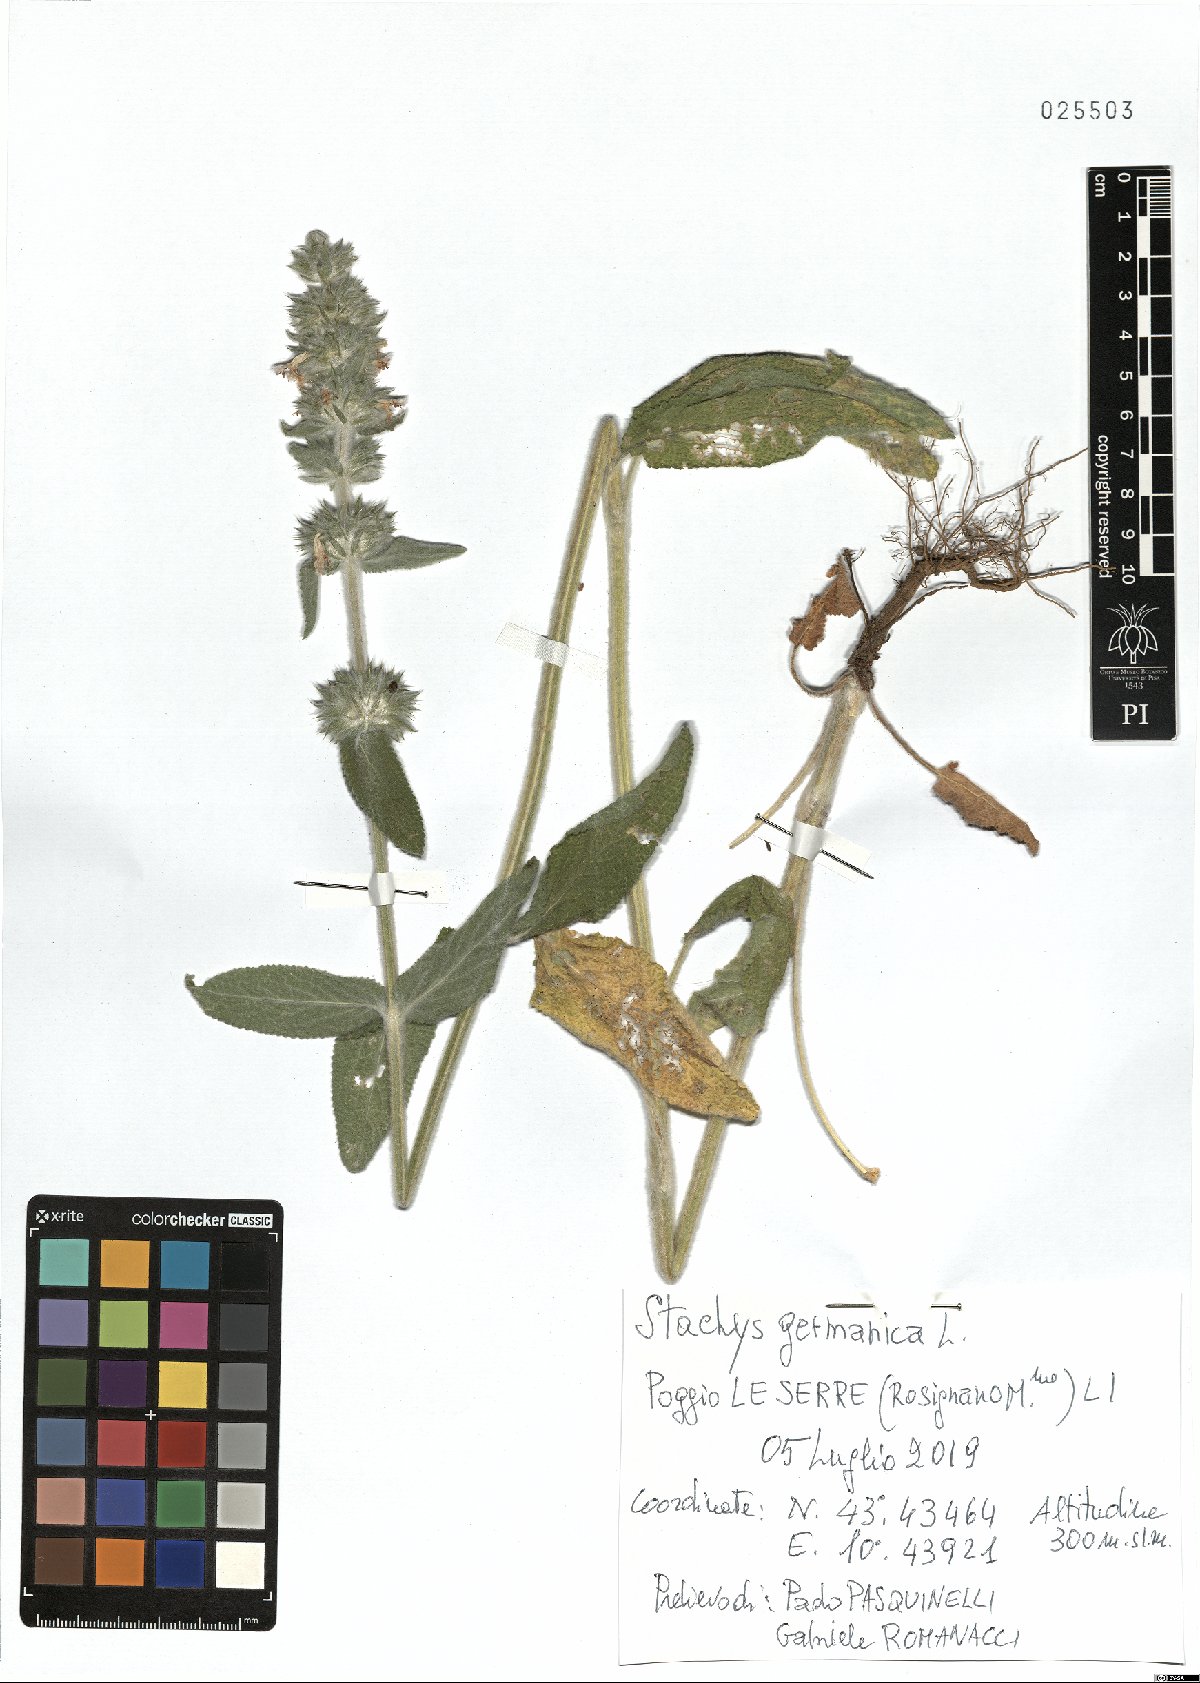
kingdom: Plantae
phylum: Tracheophyta
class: Magnoliopsida
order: Lamiales
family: Lamiaceae
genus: Stachys
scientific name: Stachys germanica
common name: Downy woundwort
